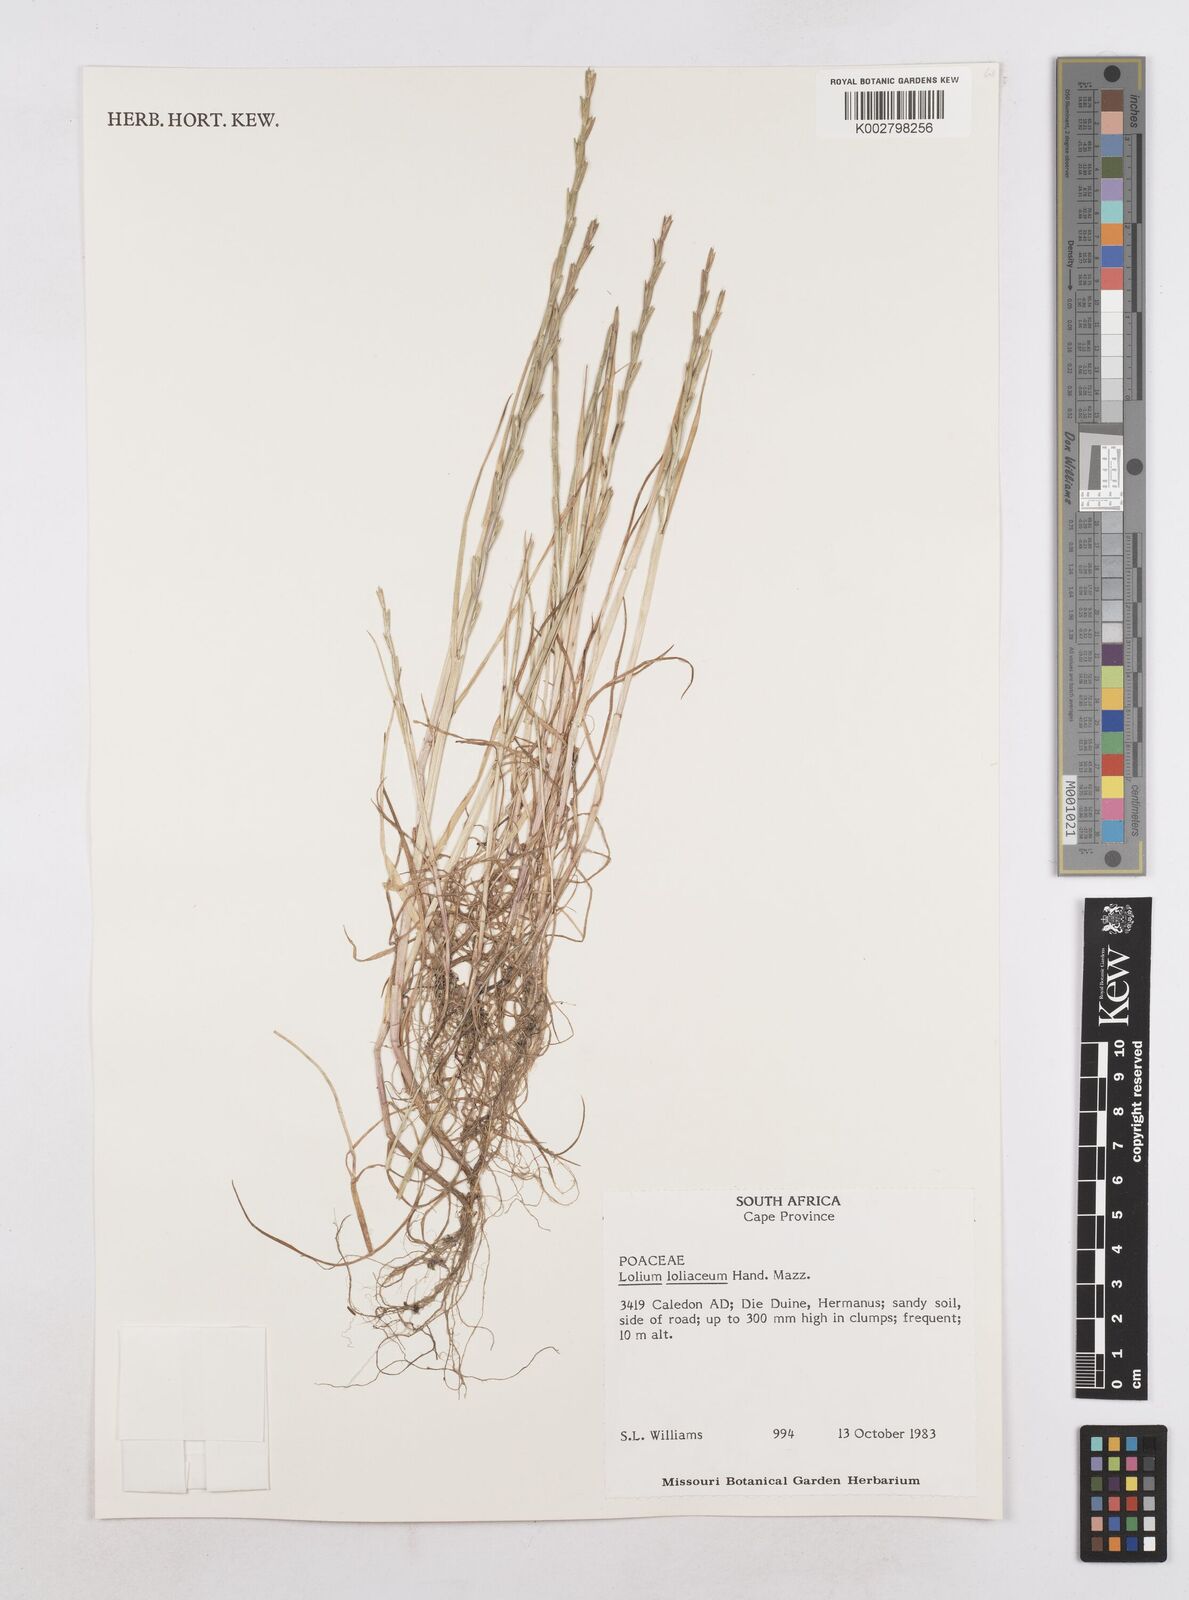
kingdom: Plantae
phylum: Tracheophyta
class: Liliopsida
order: Poales
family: Poaceae
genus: Lolium
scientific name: Lolium rigidum
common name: Wimmera ryegrass
